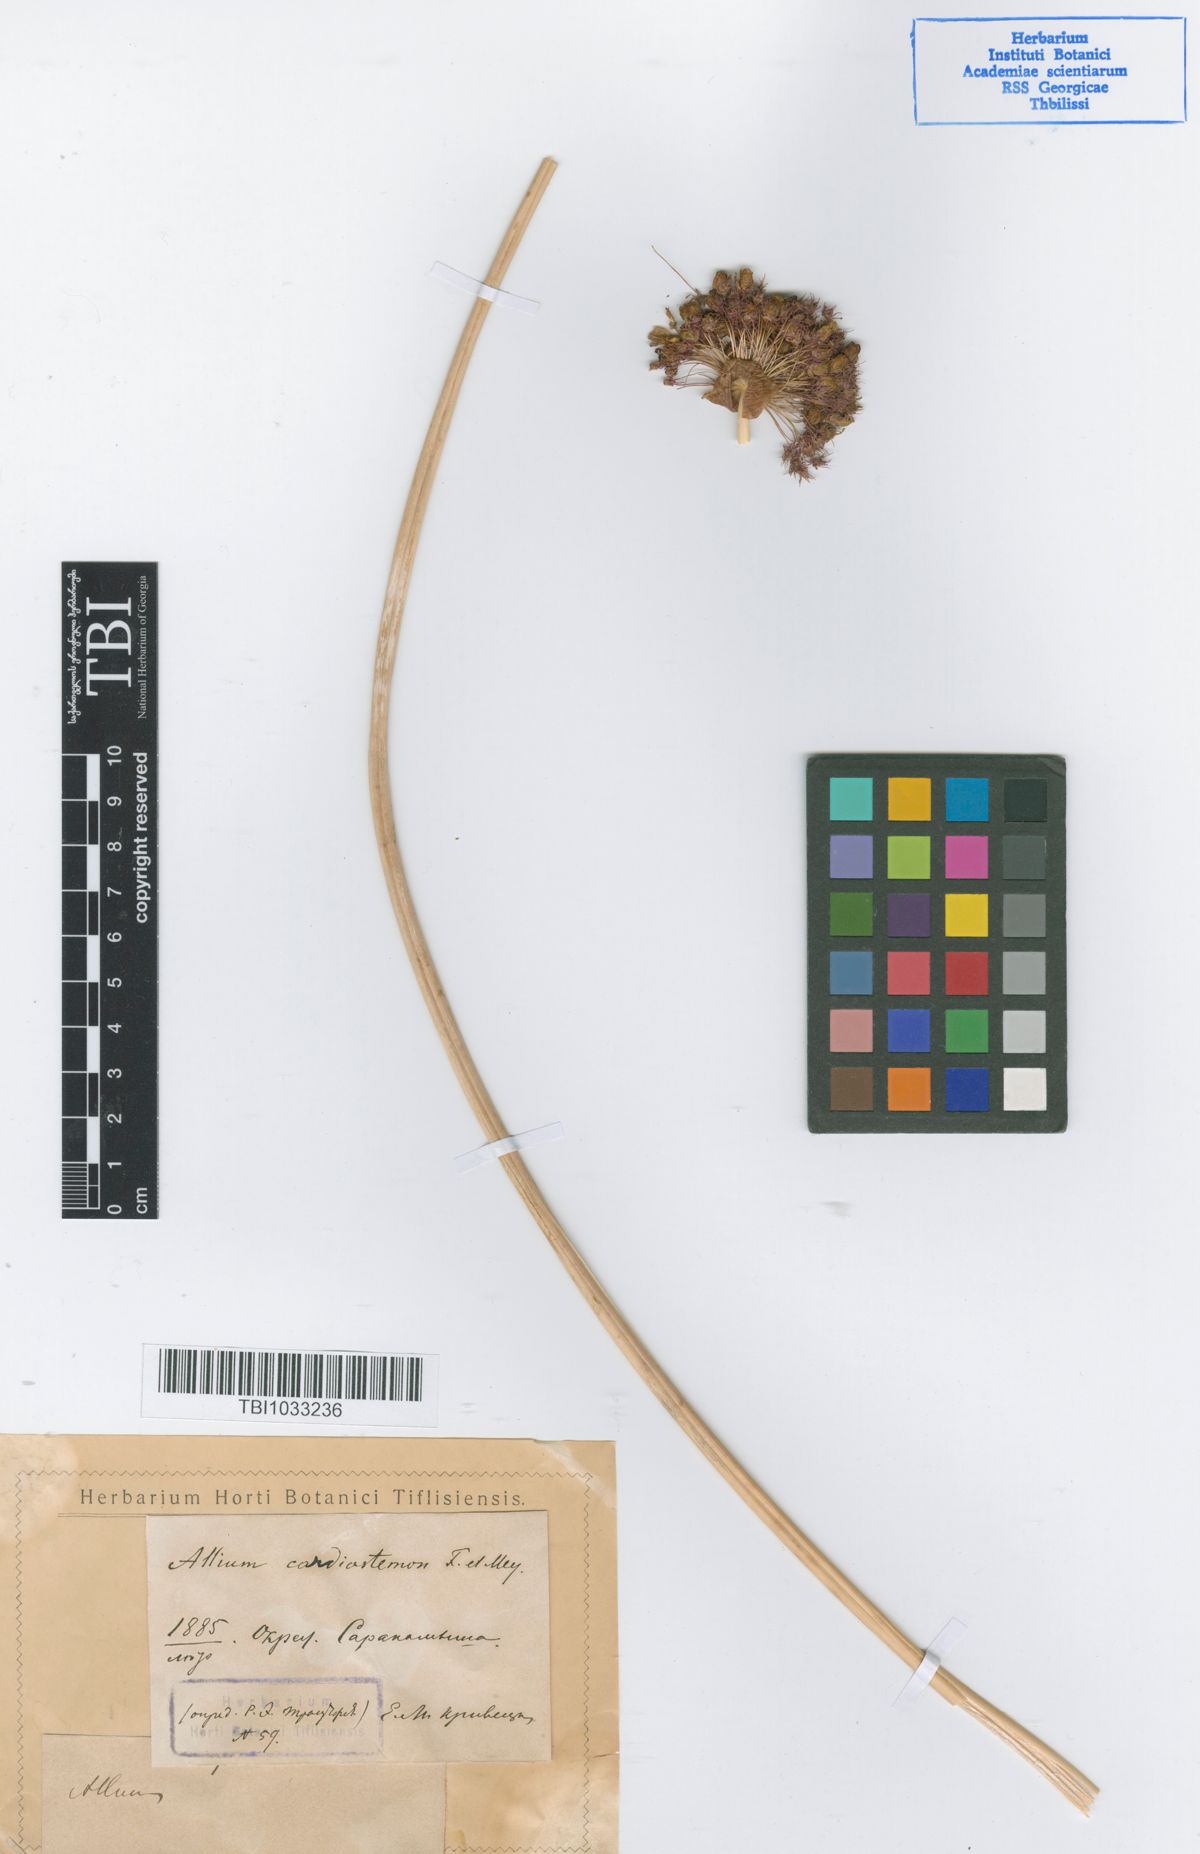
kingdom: Plantae
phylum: Tracheophyta
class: Liliopsida
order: Asparagales
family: Amaryllidaceae
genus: Allium
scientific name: Allium cardiostemon
